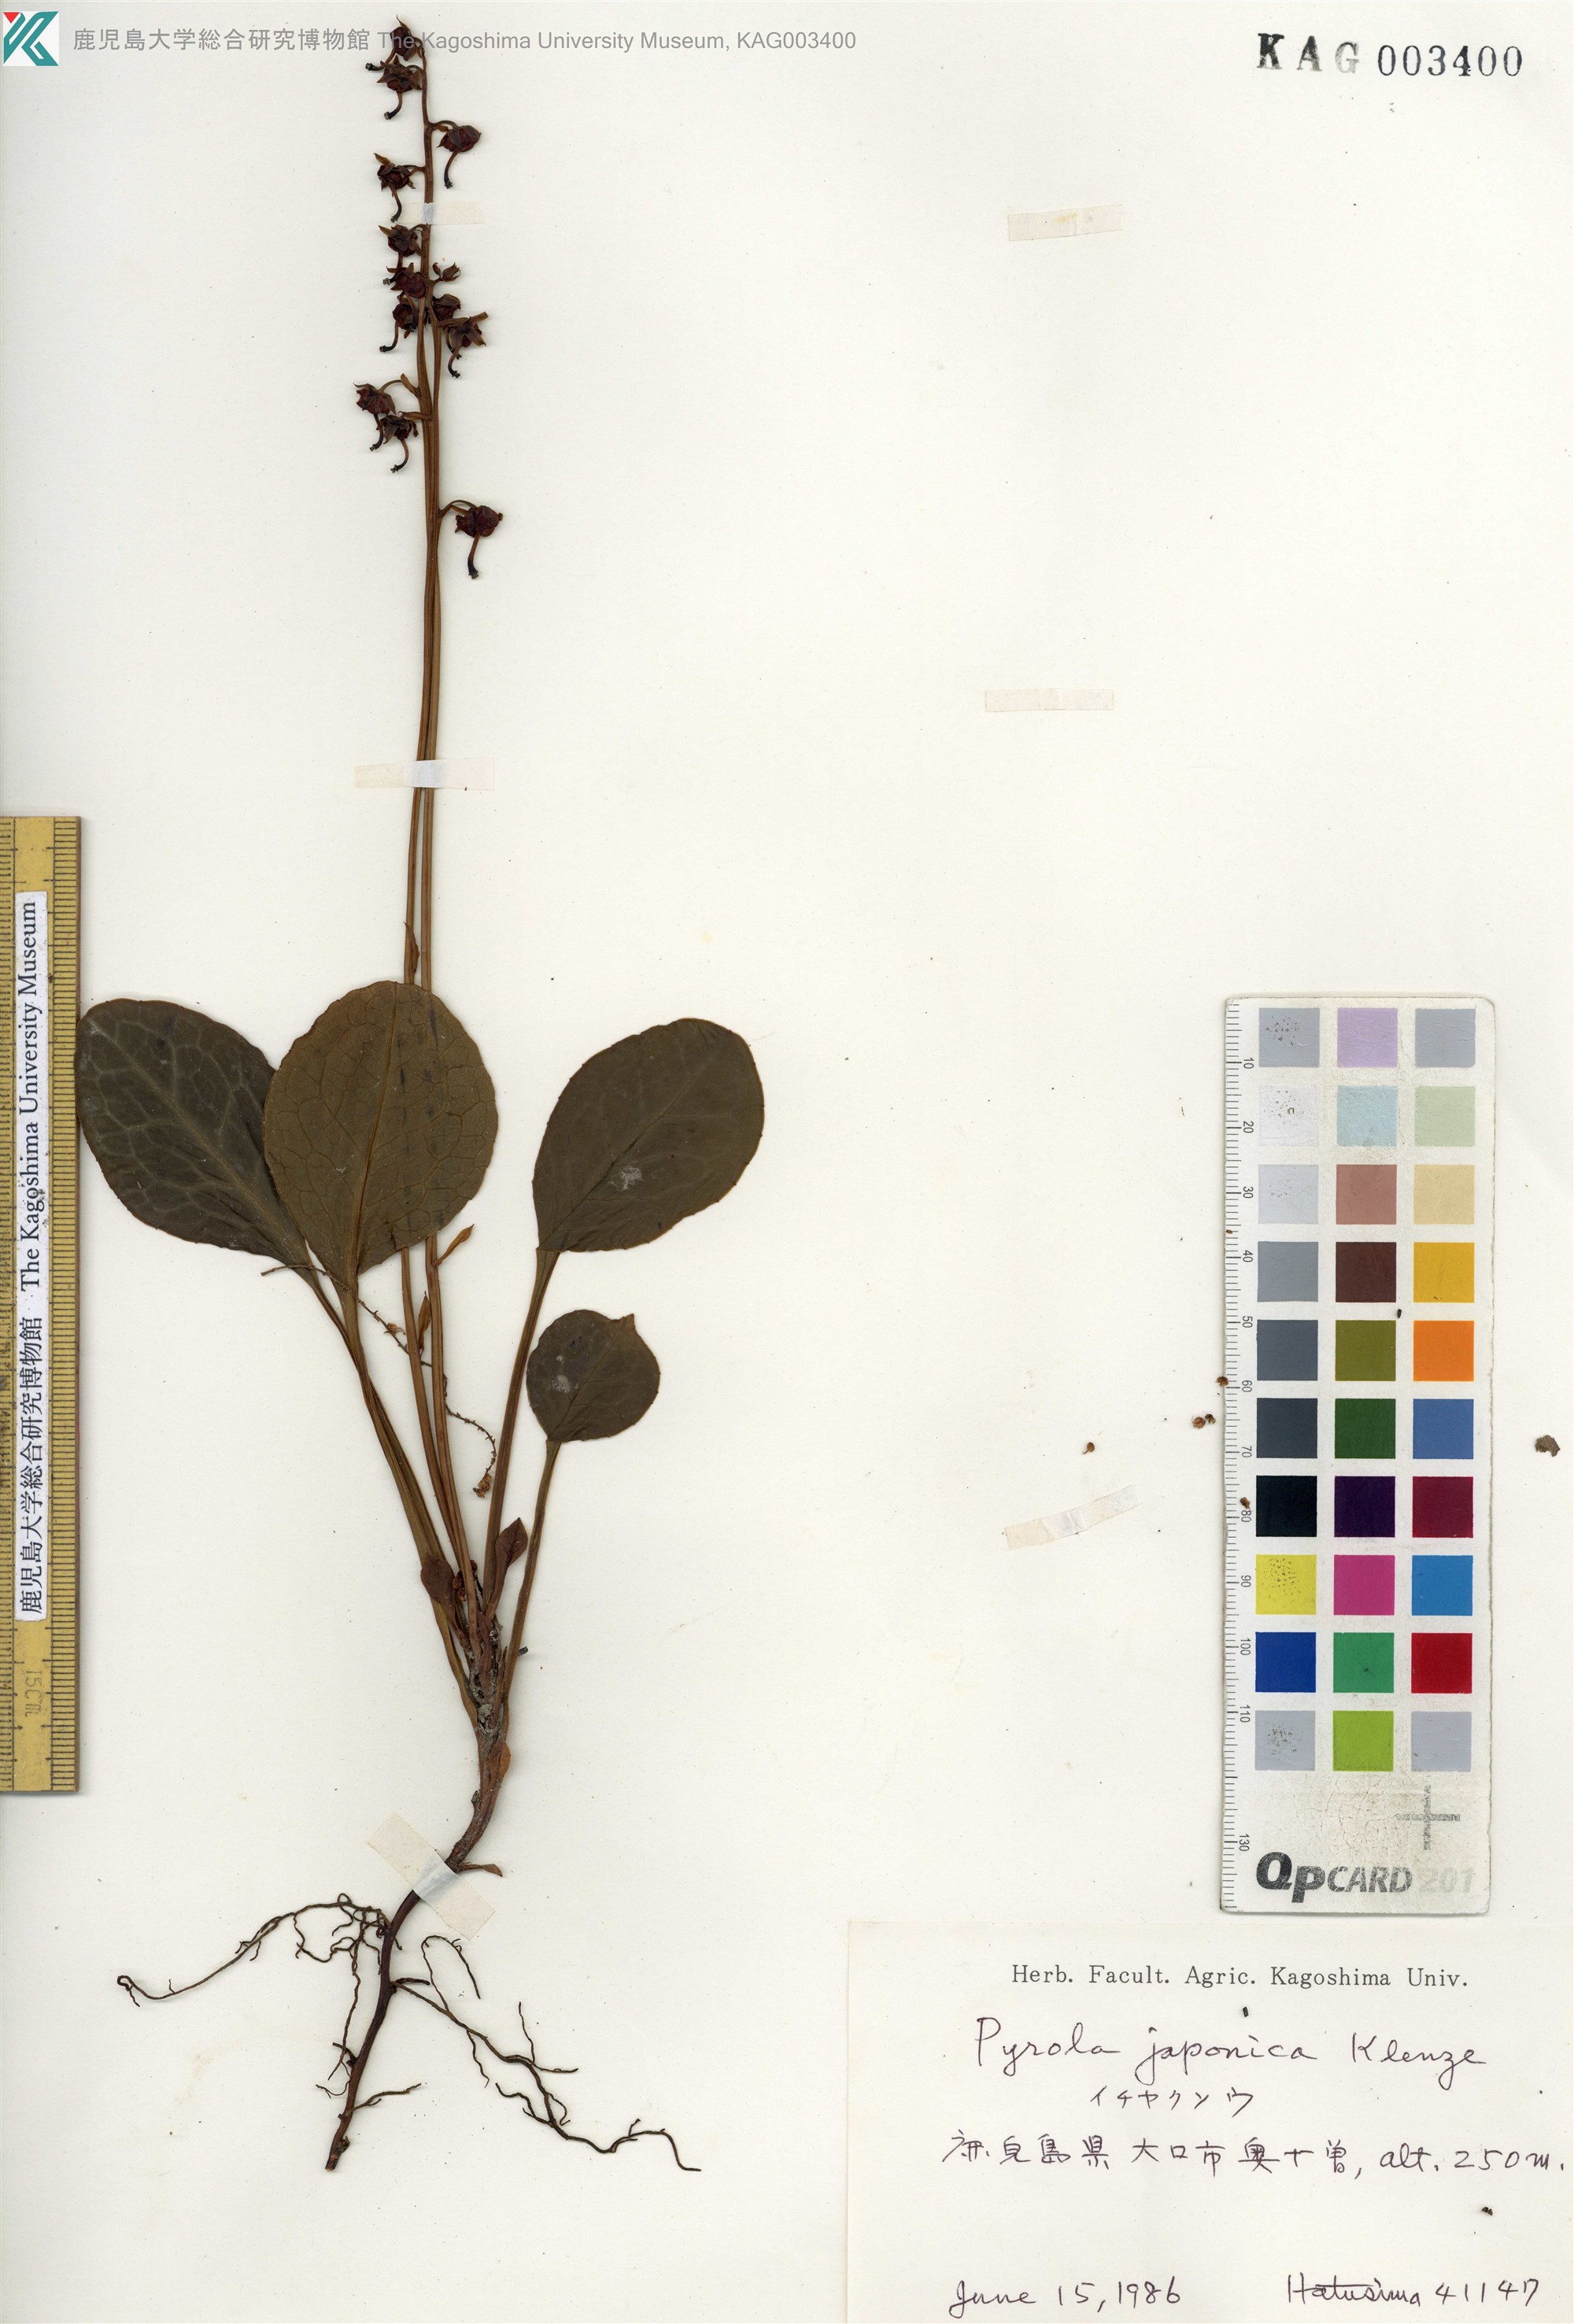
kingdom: Plantae
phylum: Tracheophyta
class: Magnoliopsida
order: Ericales
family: Ericaceae
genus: Pyrola
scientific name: Pyrola japonica
